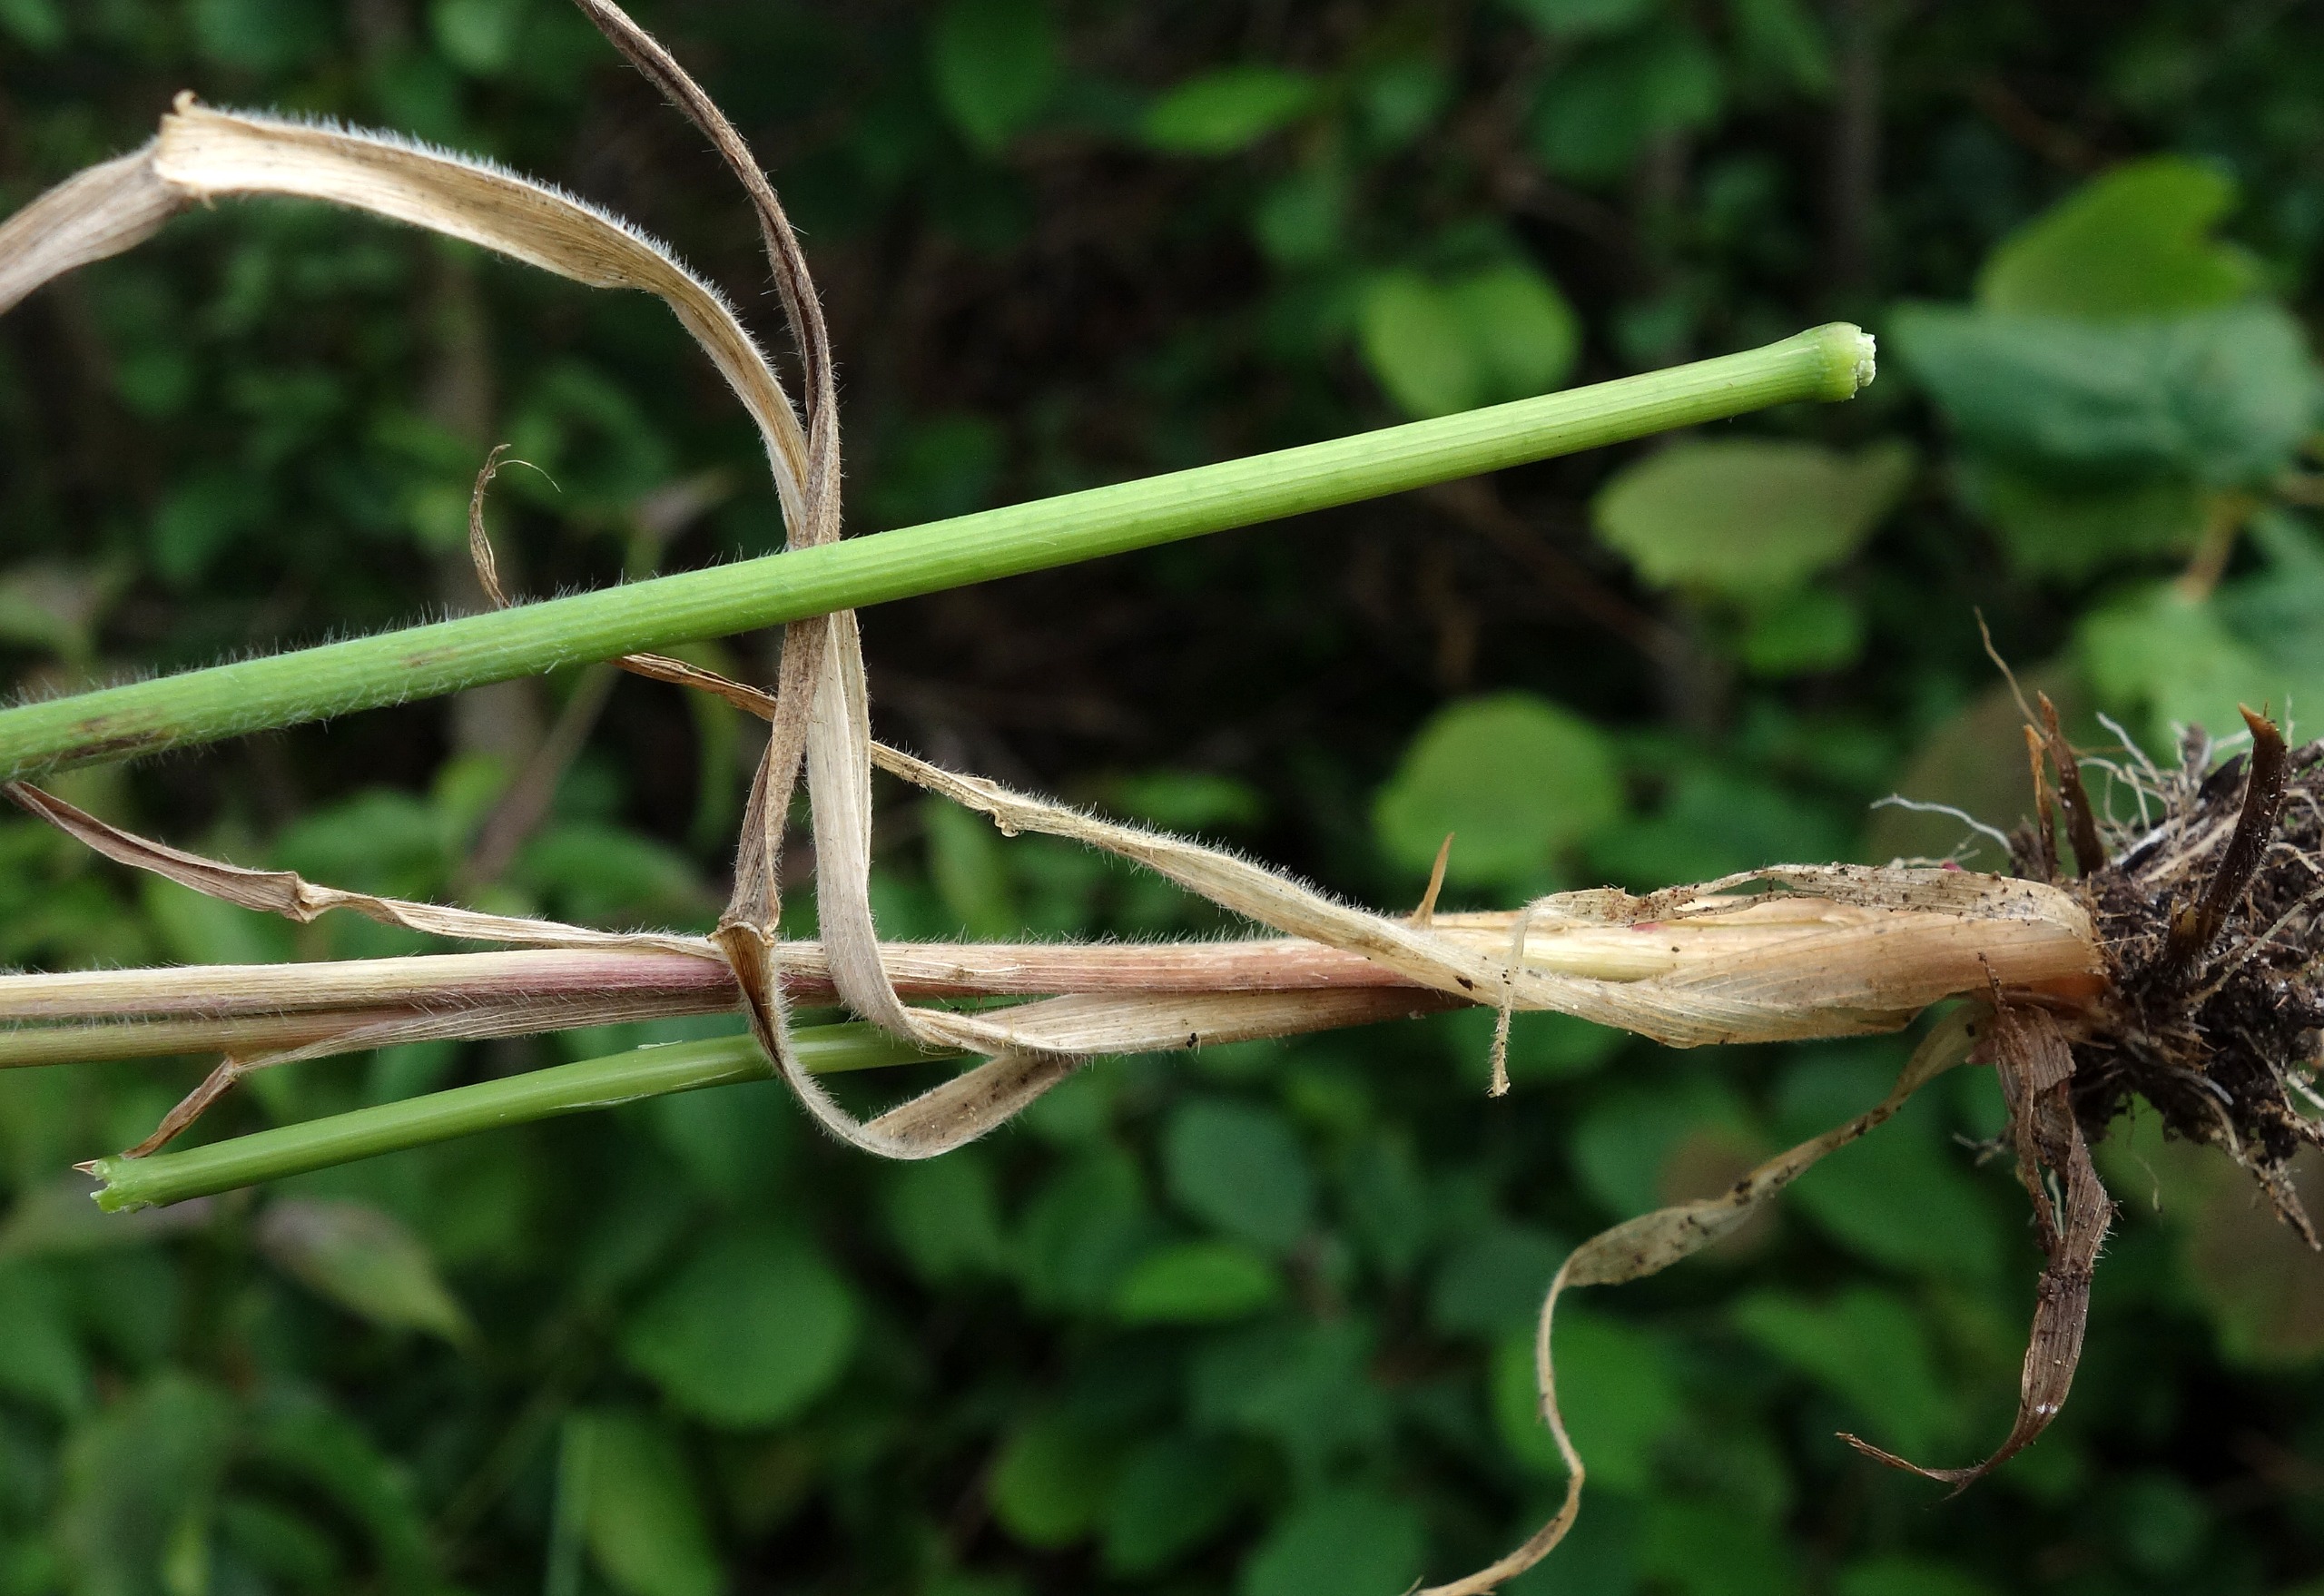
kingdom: Plantae
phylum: Tracheophyta
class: Liliopsida
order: Poales
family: Poaceae
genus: Elymus
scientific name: Elymus repens
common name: Almindelig kvik
